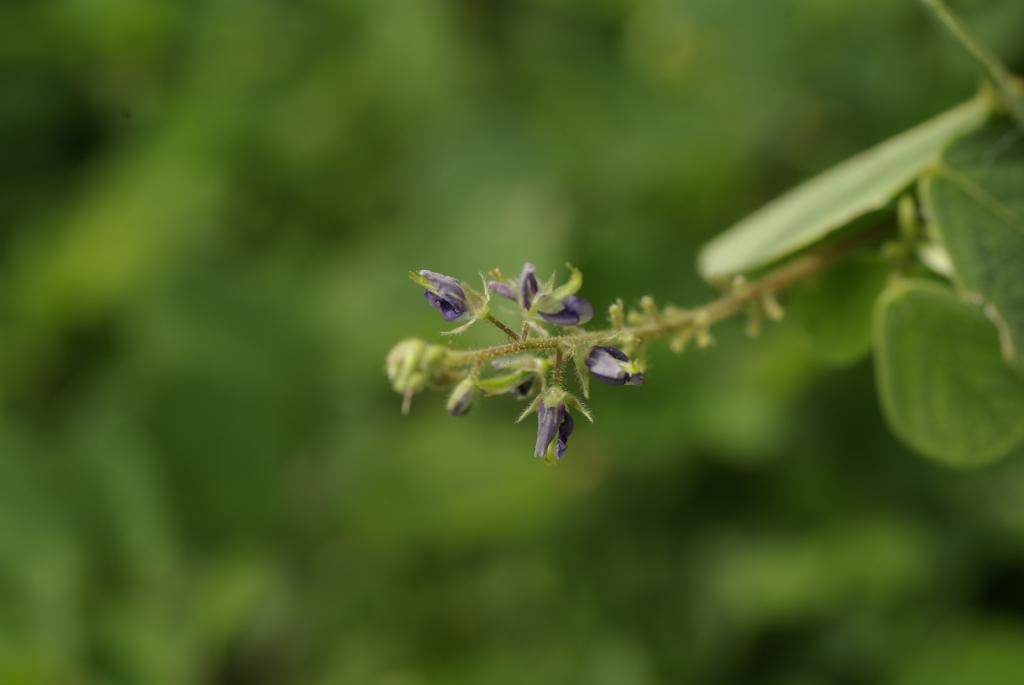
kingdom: Plantae
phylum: Tracheophyta
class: Magnoliopsida
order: Fabales
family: Fabaceae
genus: Pycnospora
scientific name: Pycnospora lutescens
